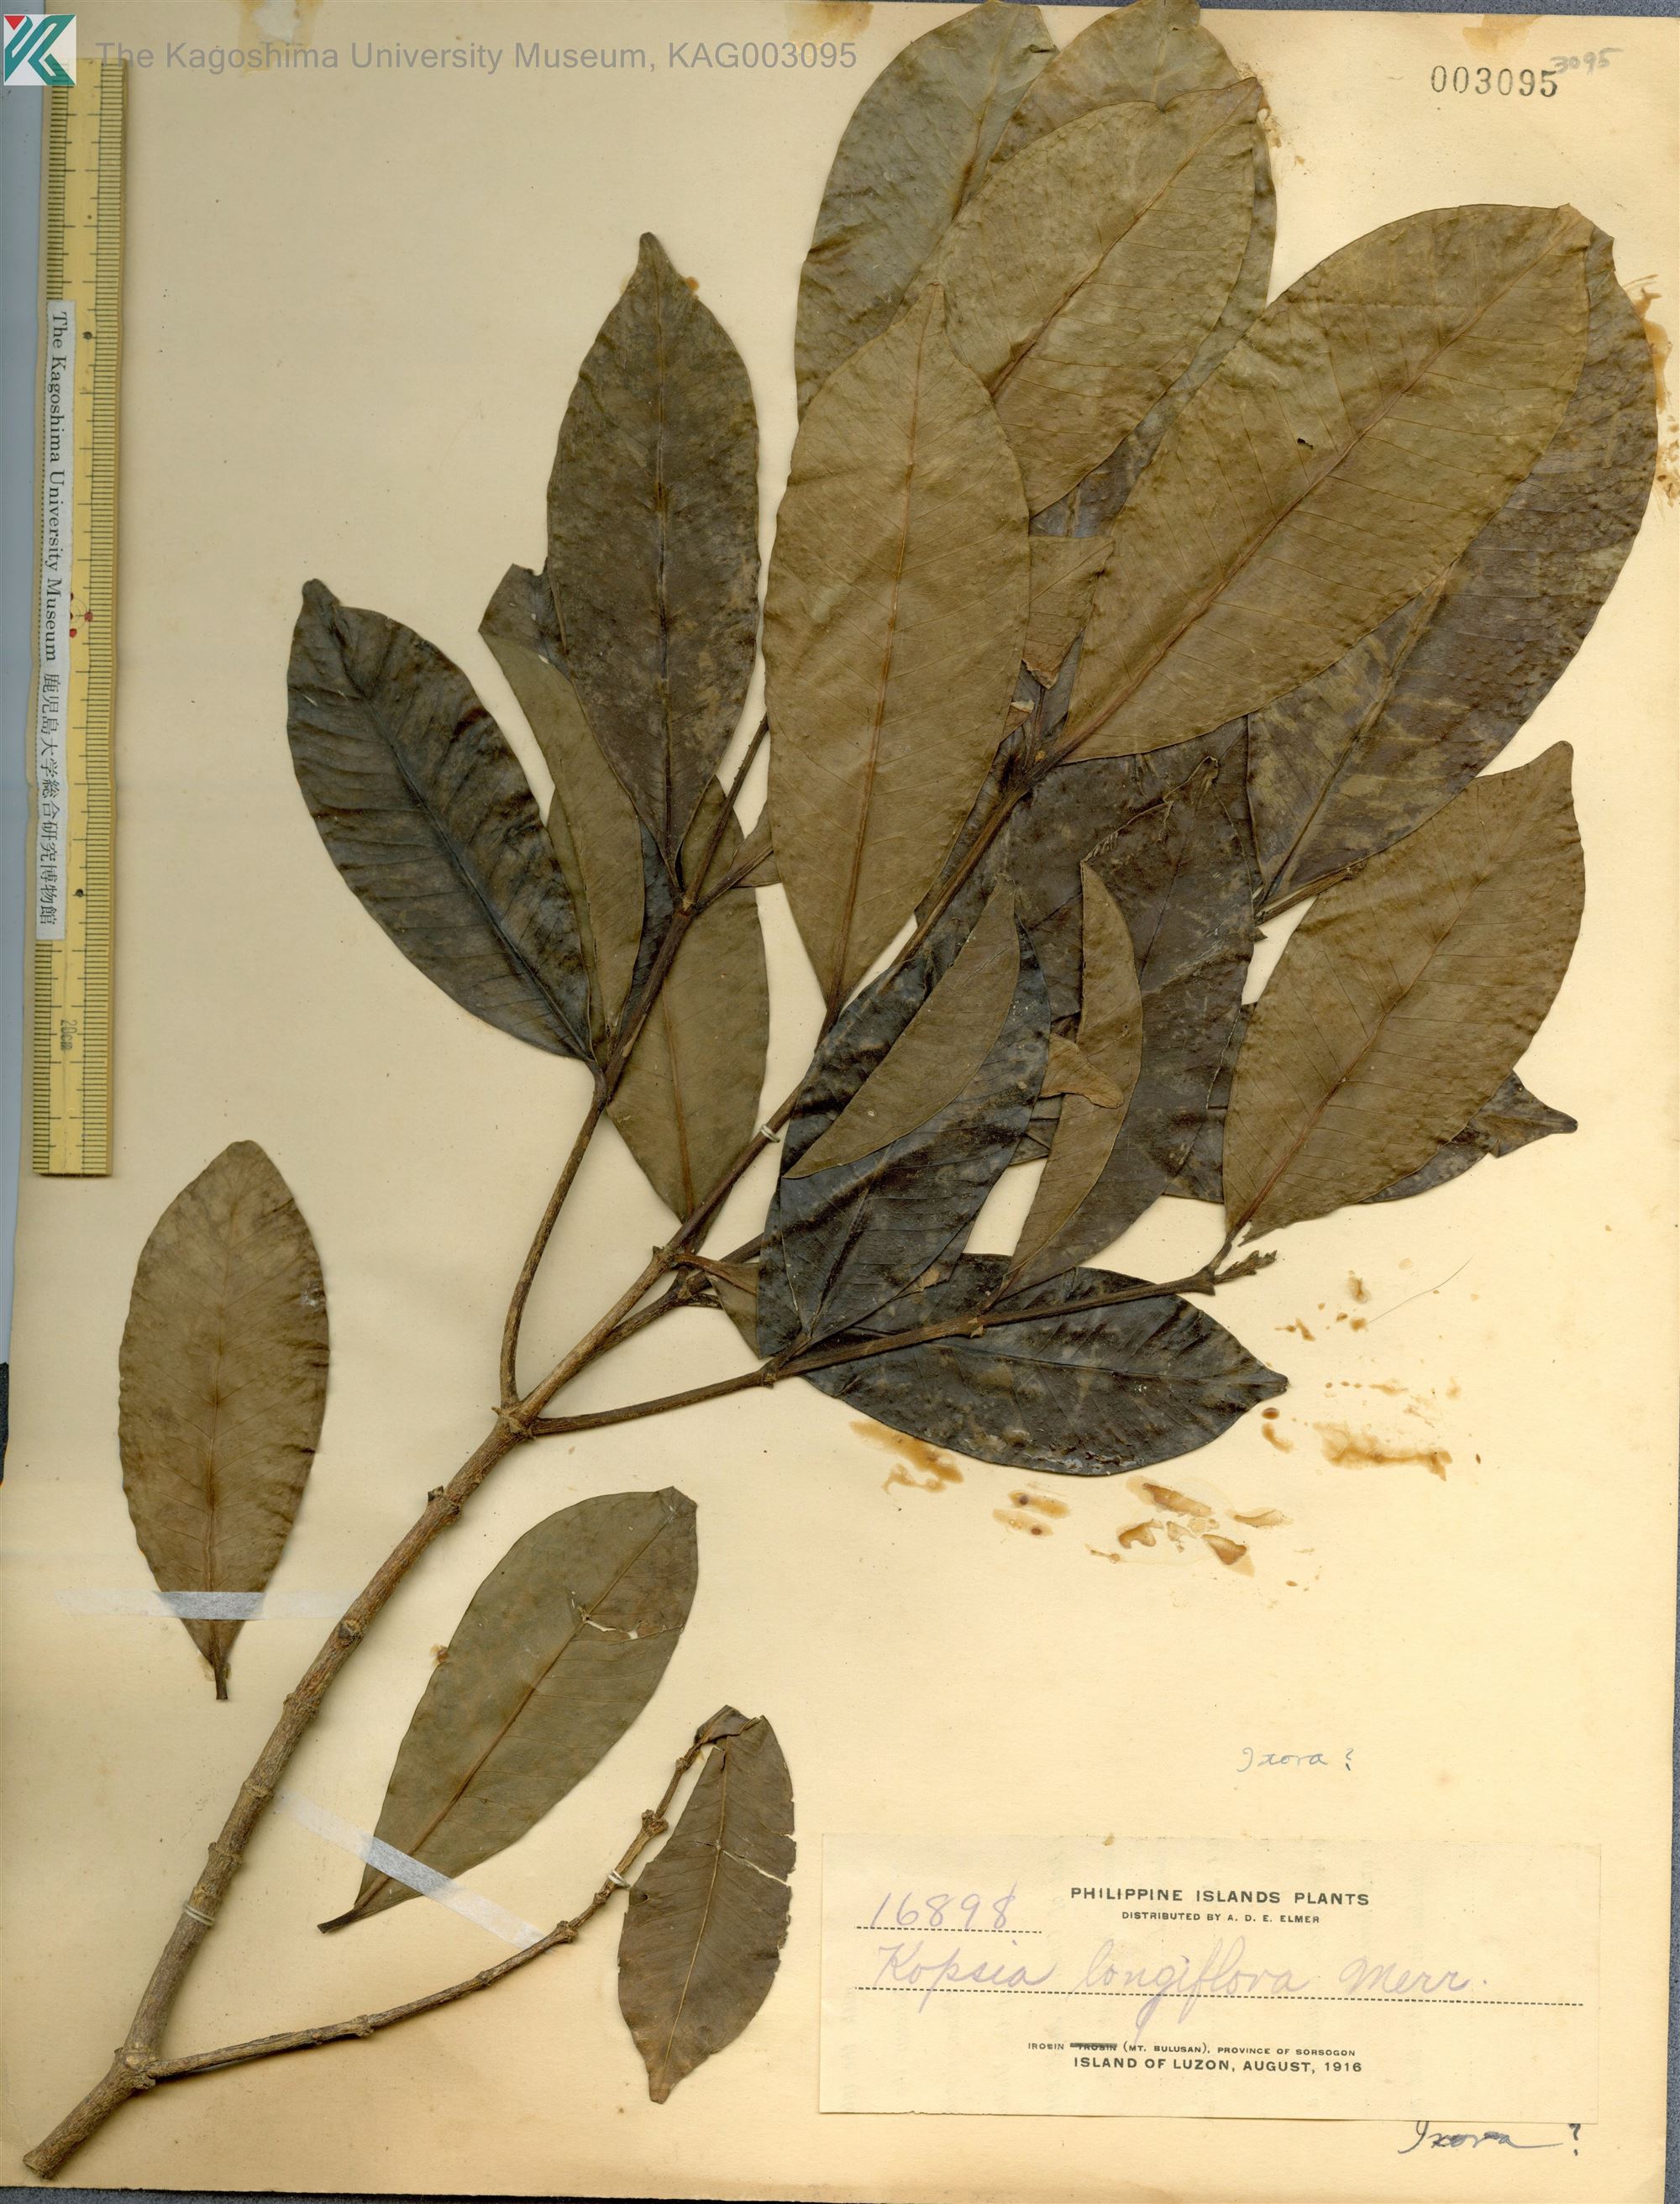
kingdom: Plantae
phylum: Tracheophyta
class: Magnoliopsida
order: Gentianales
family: Apocynaceae
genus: Kopsia
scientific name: Kopsia arborea
